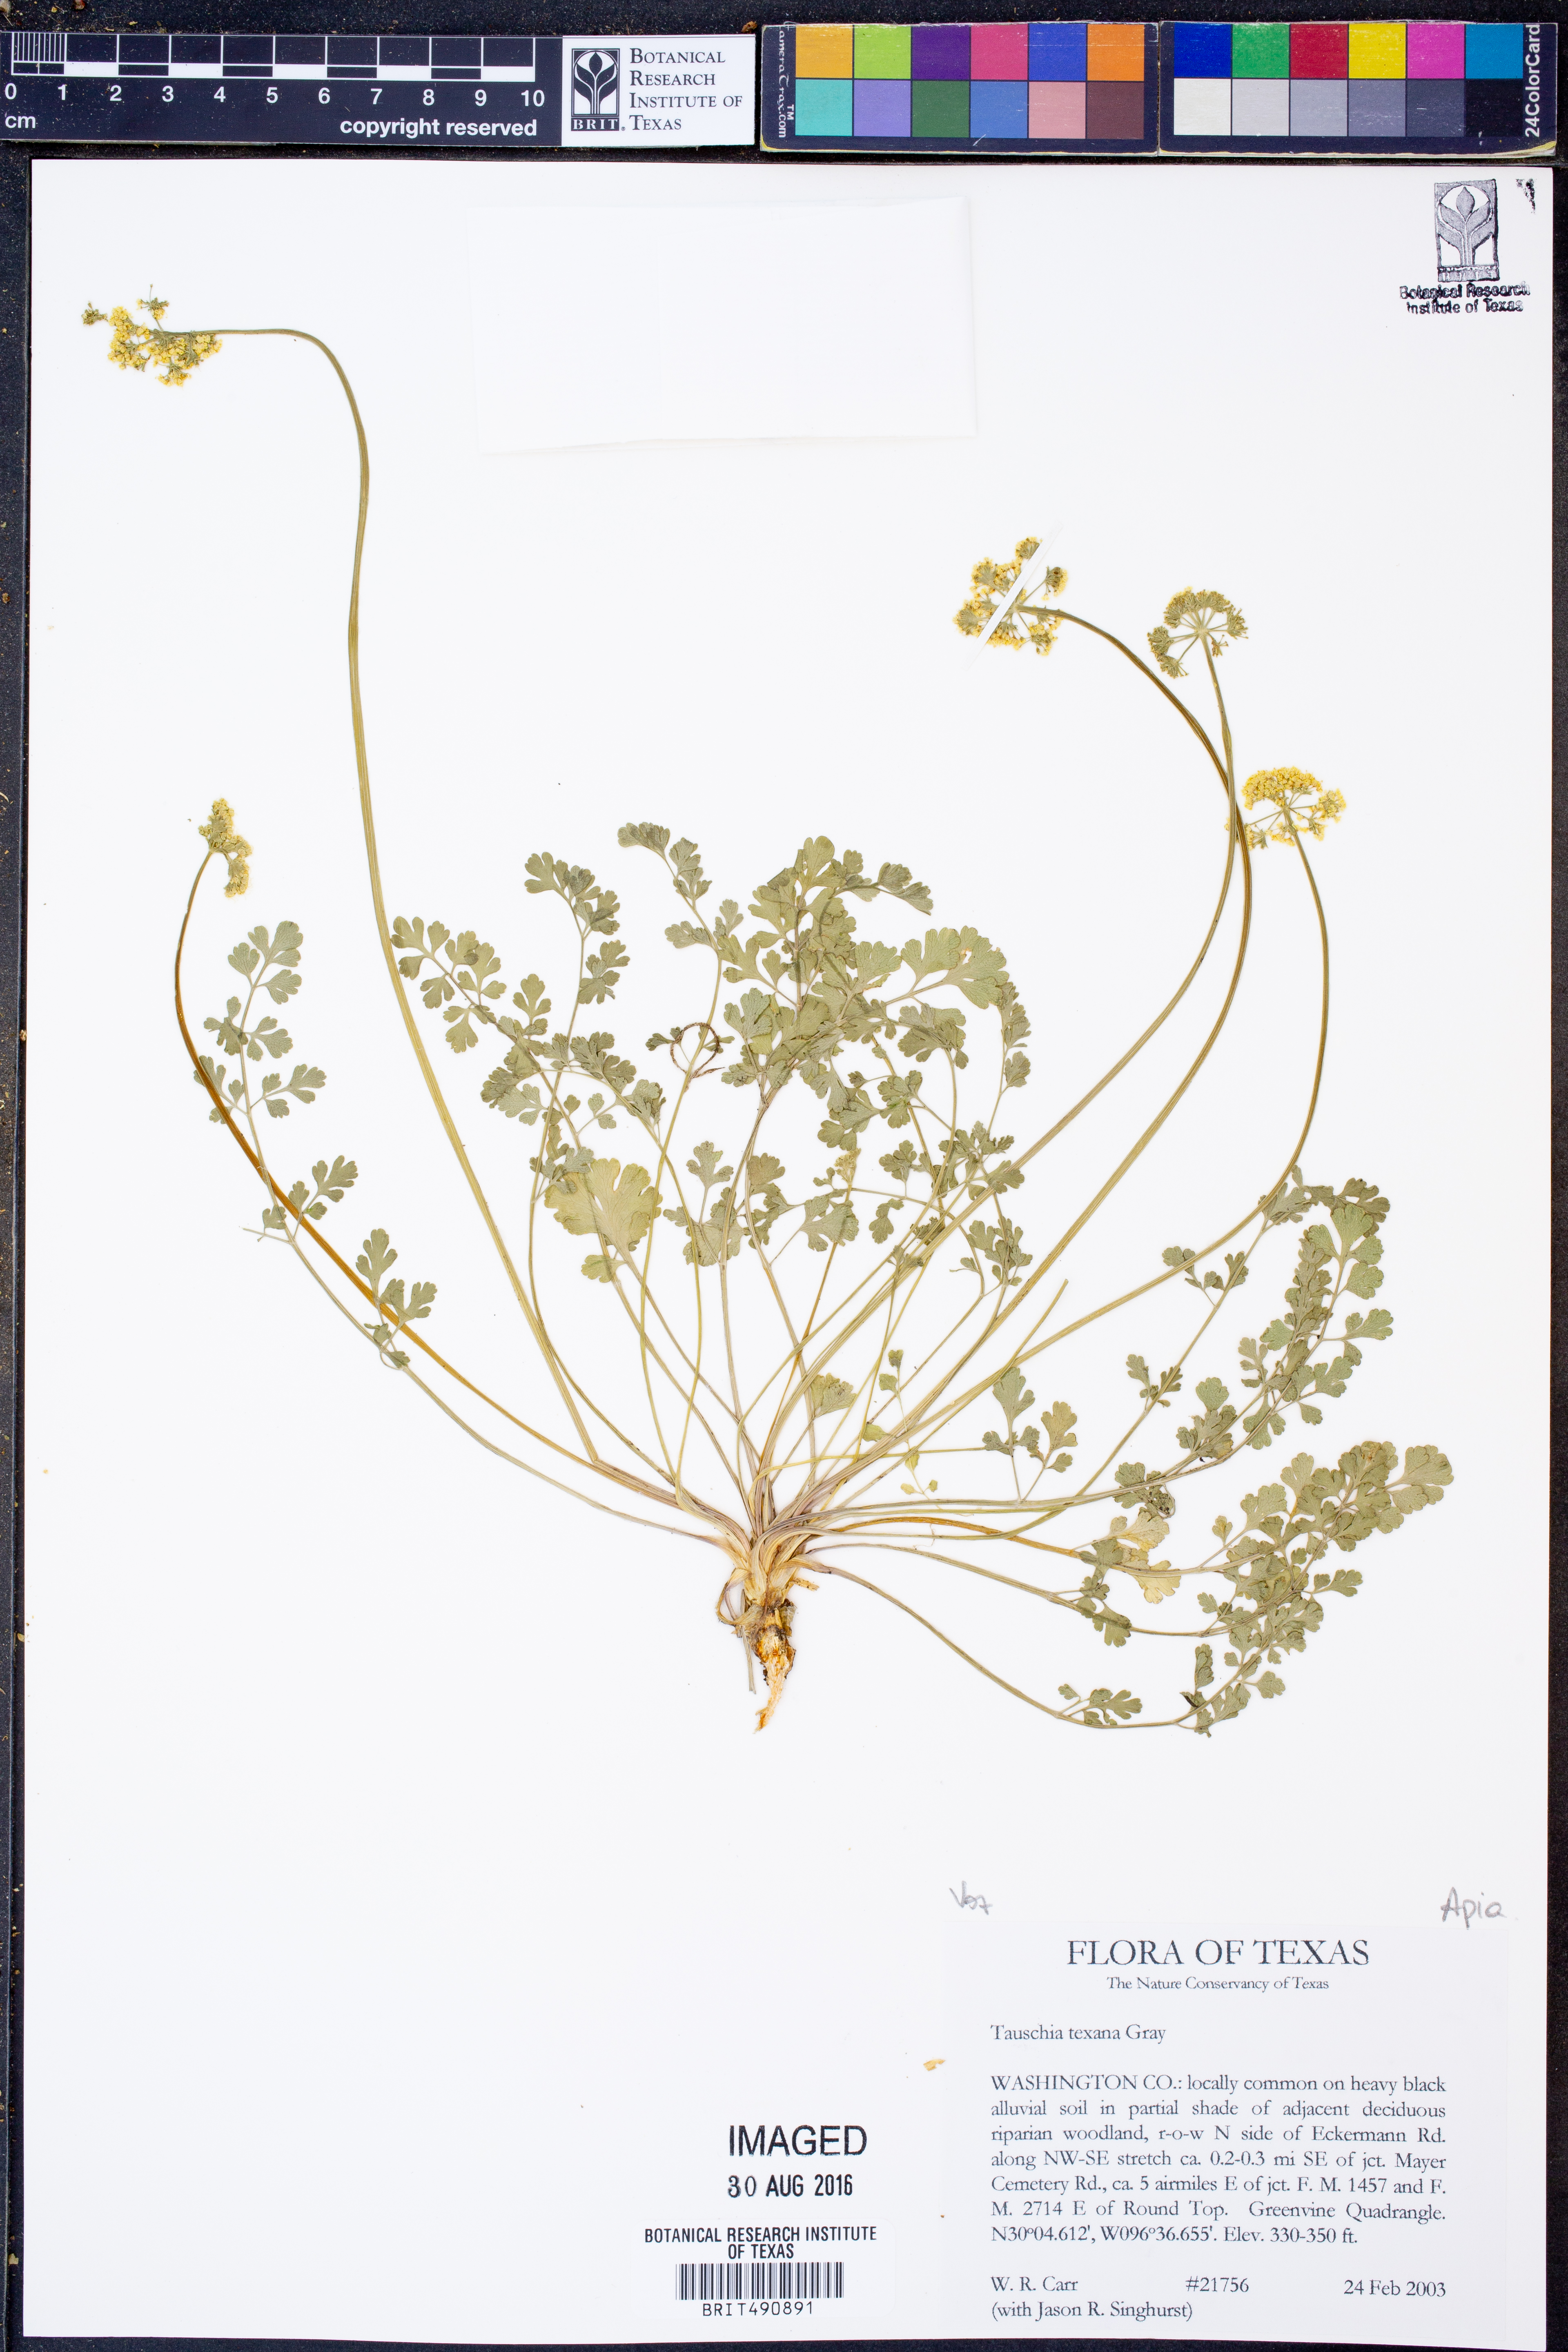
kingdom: Plantae
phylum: Tracheophyta
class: Magnoliopsida
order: Apiales
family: Apiaceae
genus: Tauschia
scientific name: Tauschia texana
